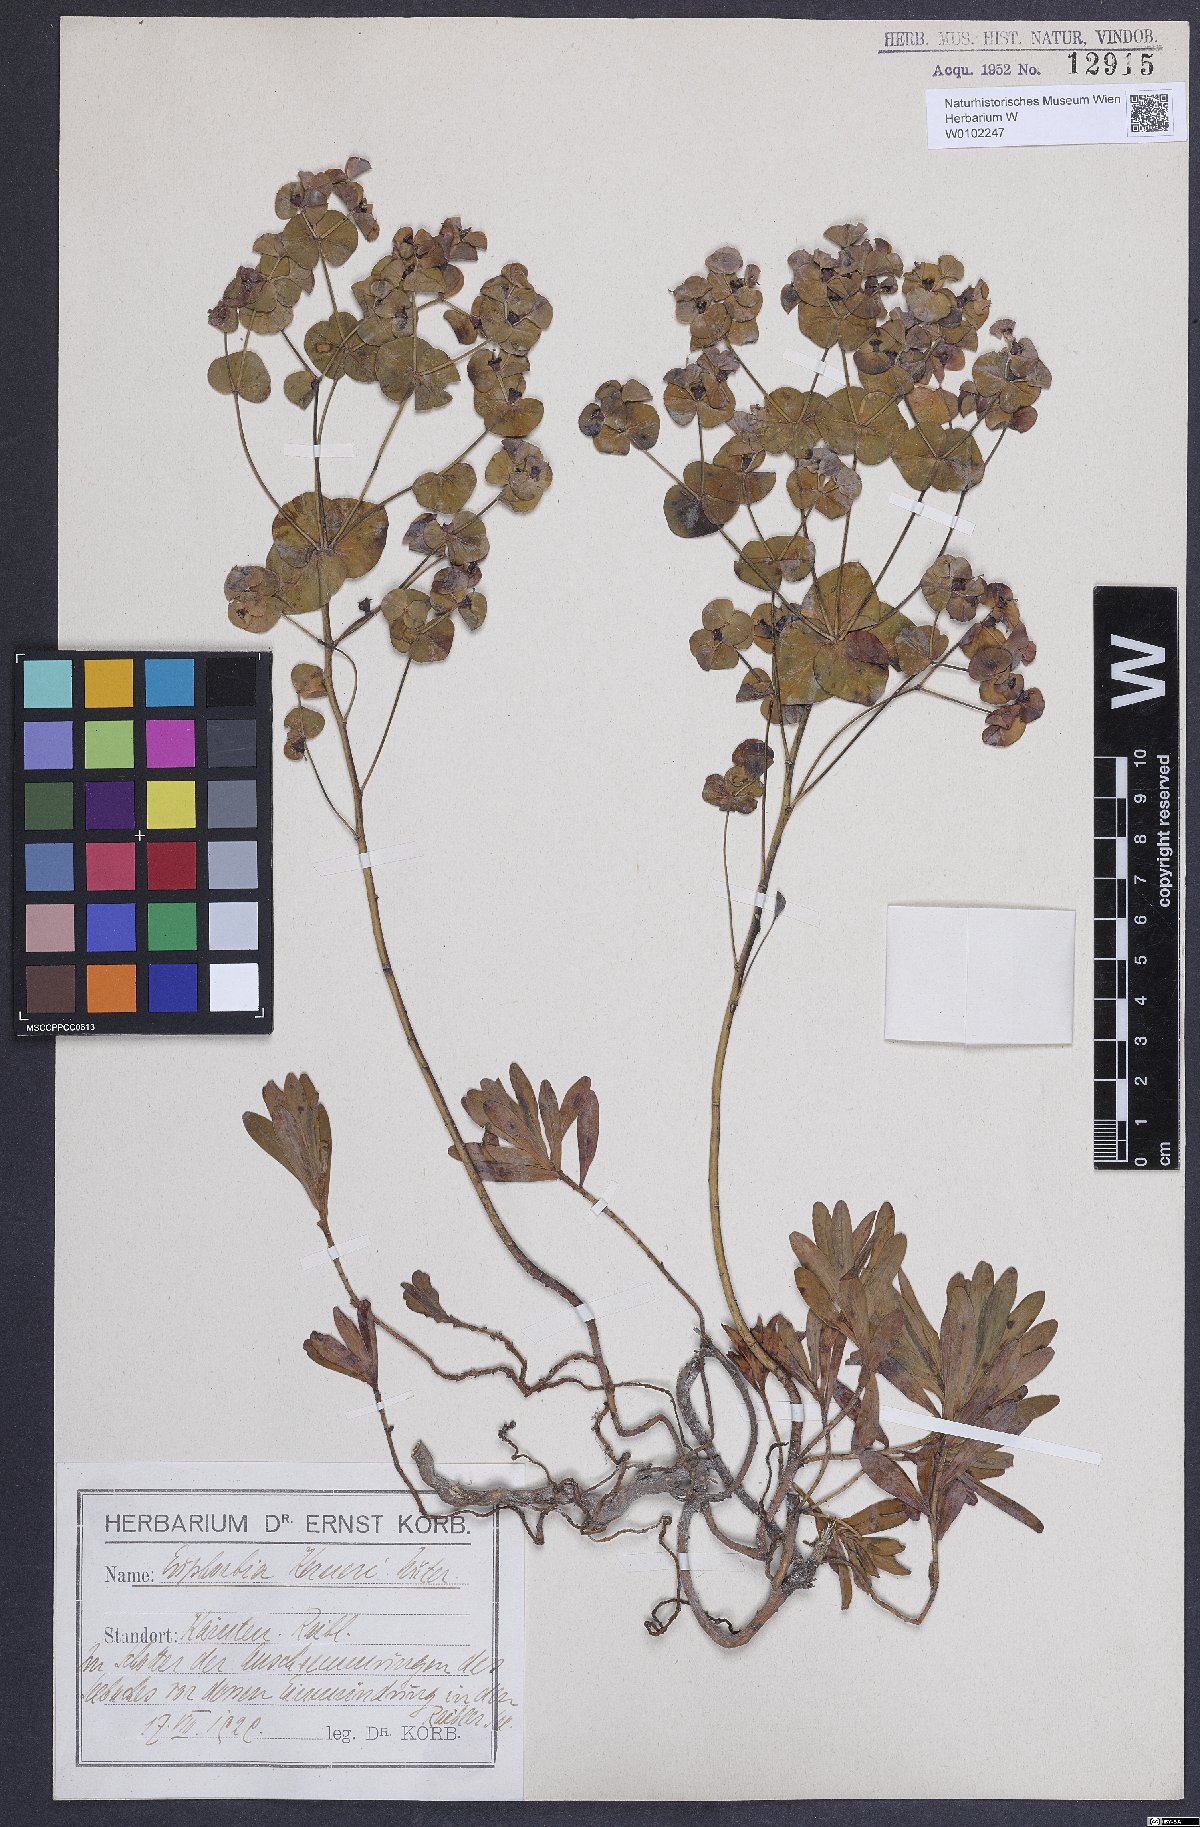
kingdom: Plantae
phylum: Tracheophyta
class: Magnoliopsida
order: Malpighiales
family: Euphorbiaceae
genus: Euphorbia
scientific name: Euphorbia kerneri
